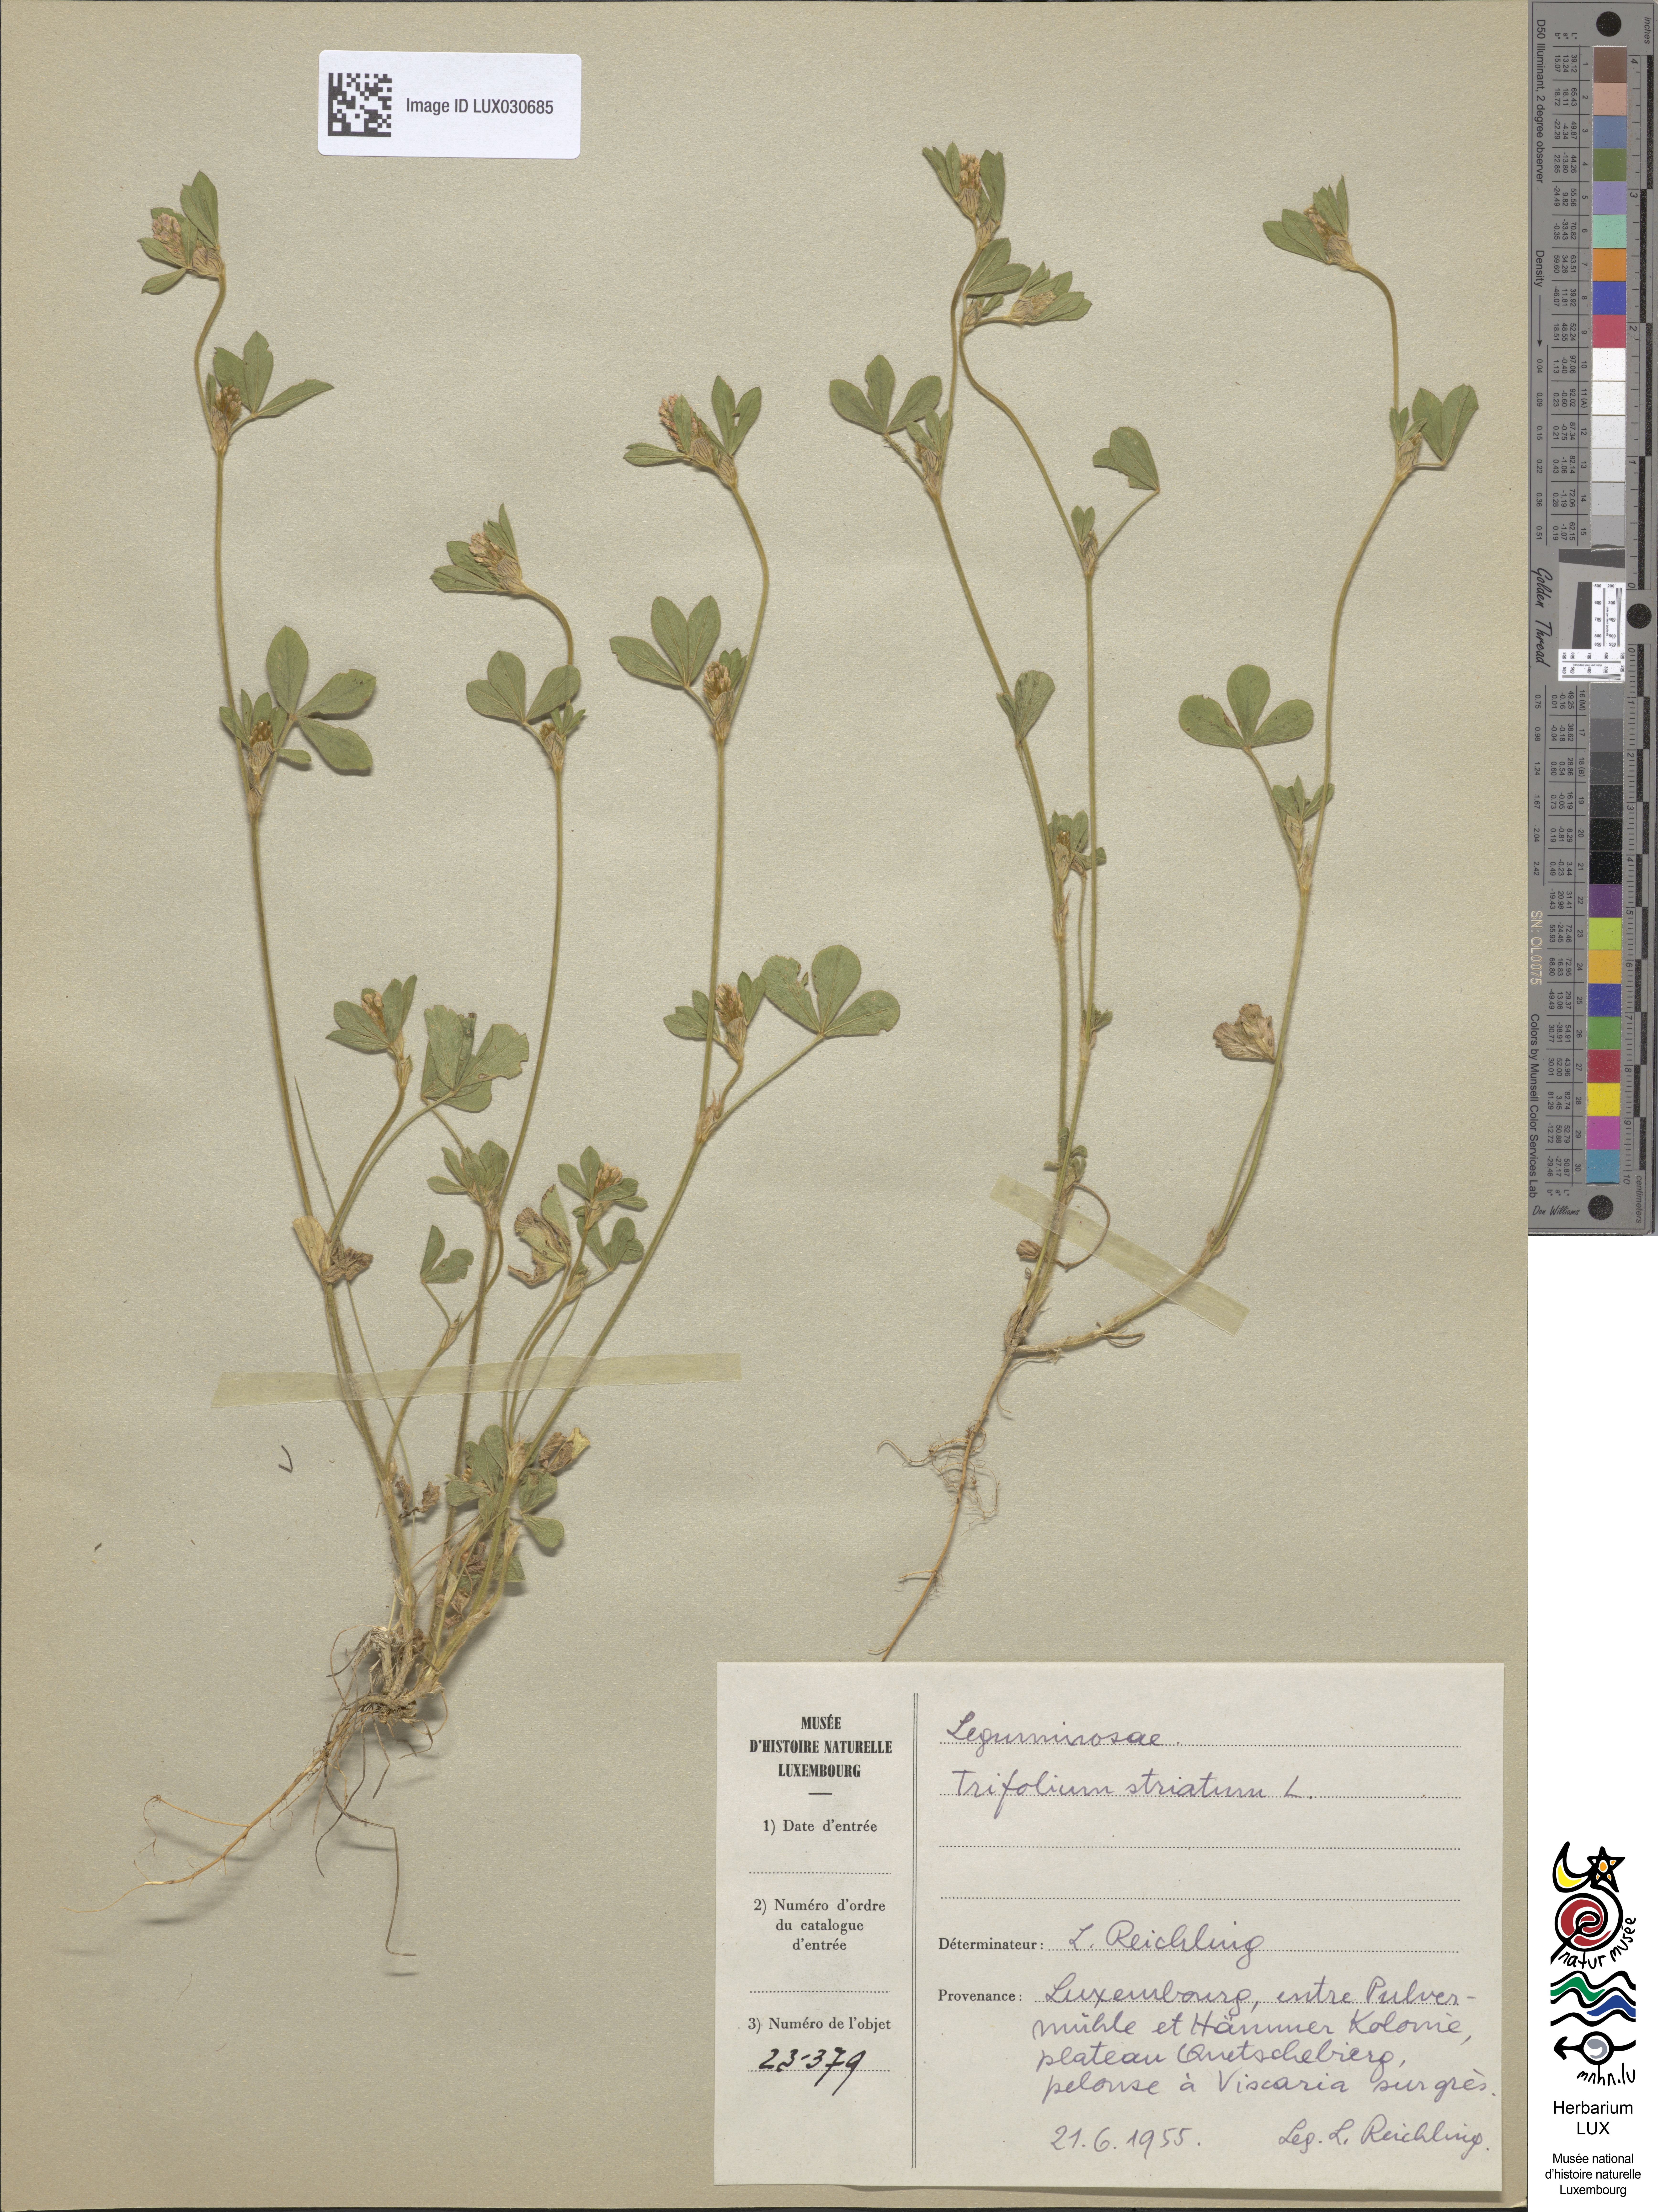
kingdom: Plantae
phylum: Tracheophyta
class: Magnoliopsida
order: Fabales
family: Fabaceae
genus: Trifolium
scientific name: Trifolium striatum
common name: Knotted clover
